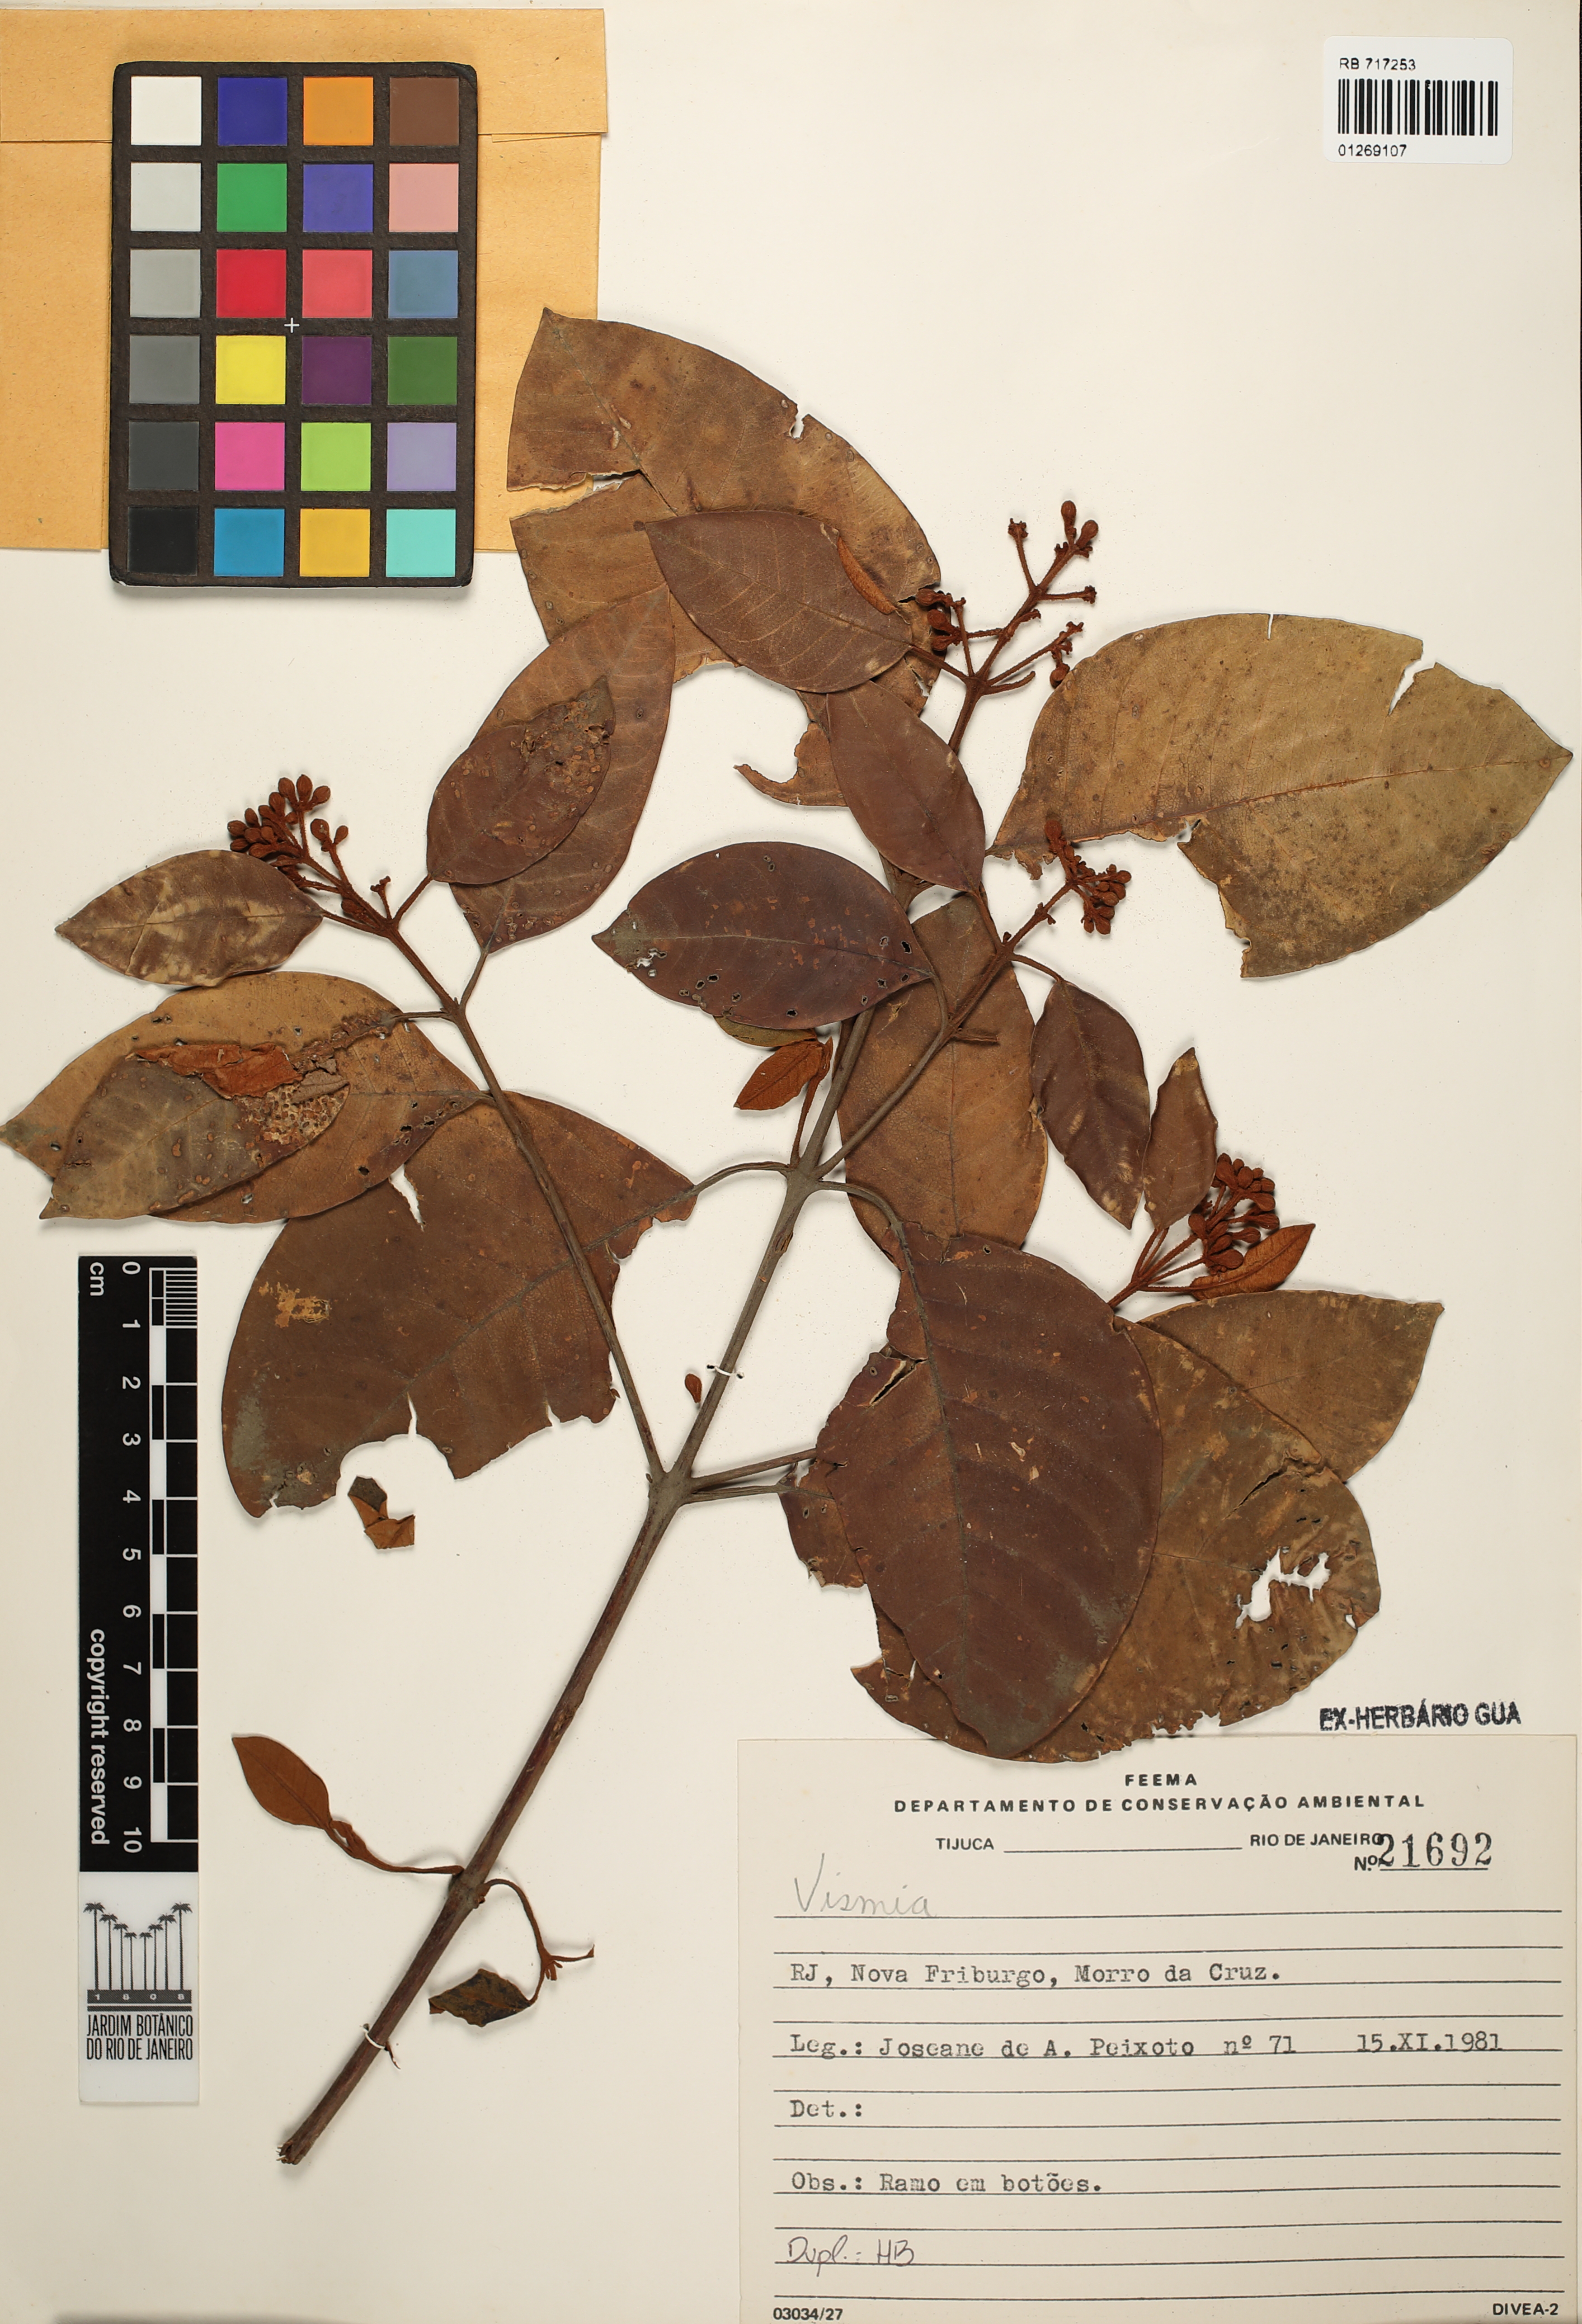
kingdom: Plantae
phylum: Tracheophyta
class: Magnoliopsida
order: Malpighiales
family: Hypericaceae
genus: Vismia
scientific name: Vismia
